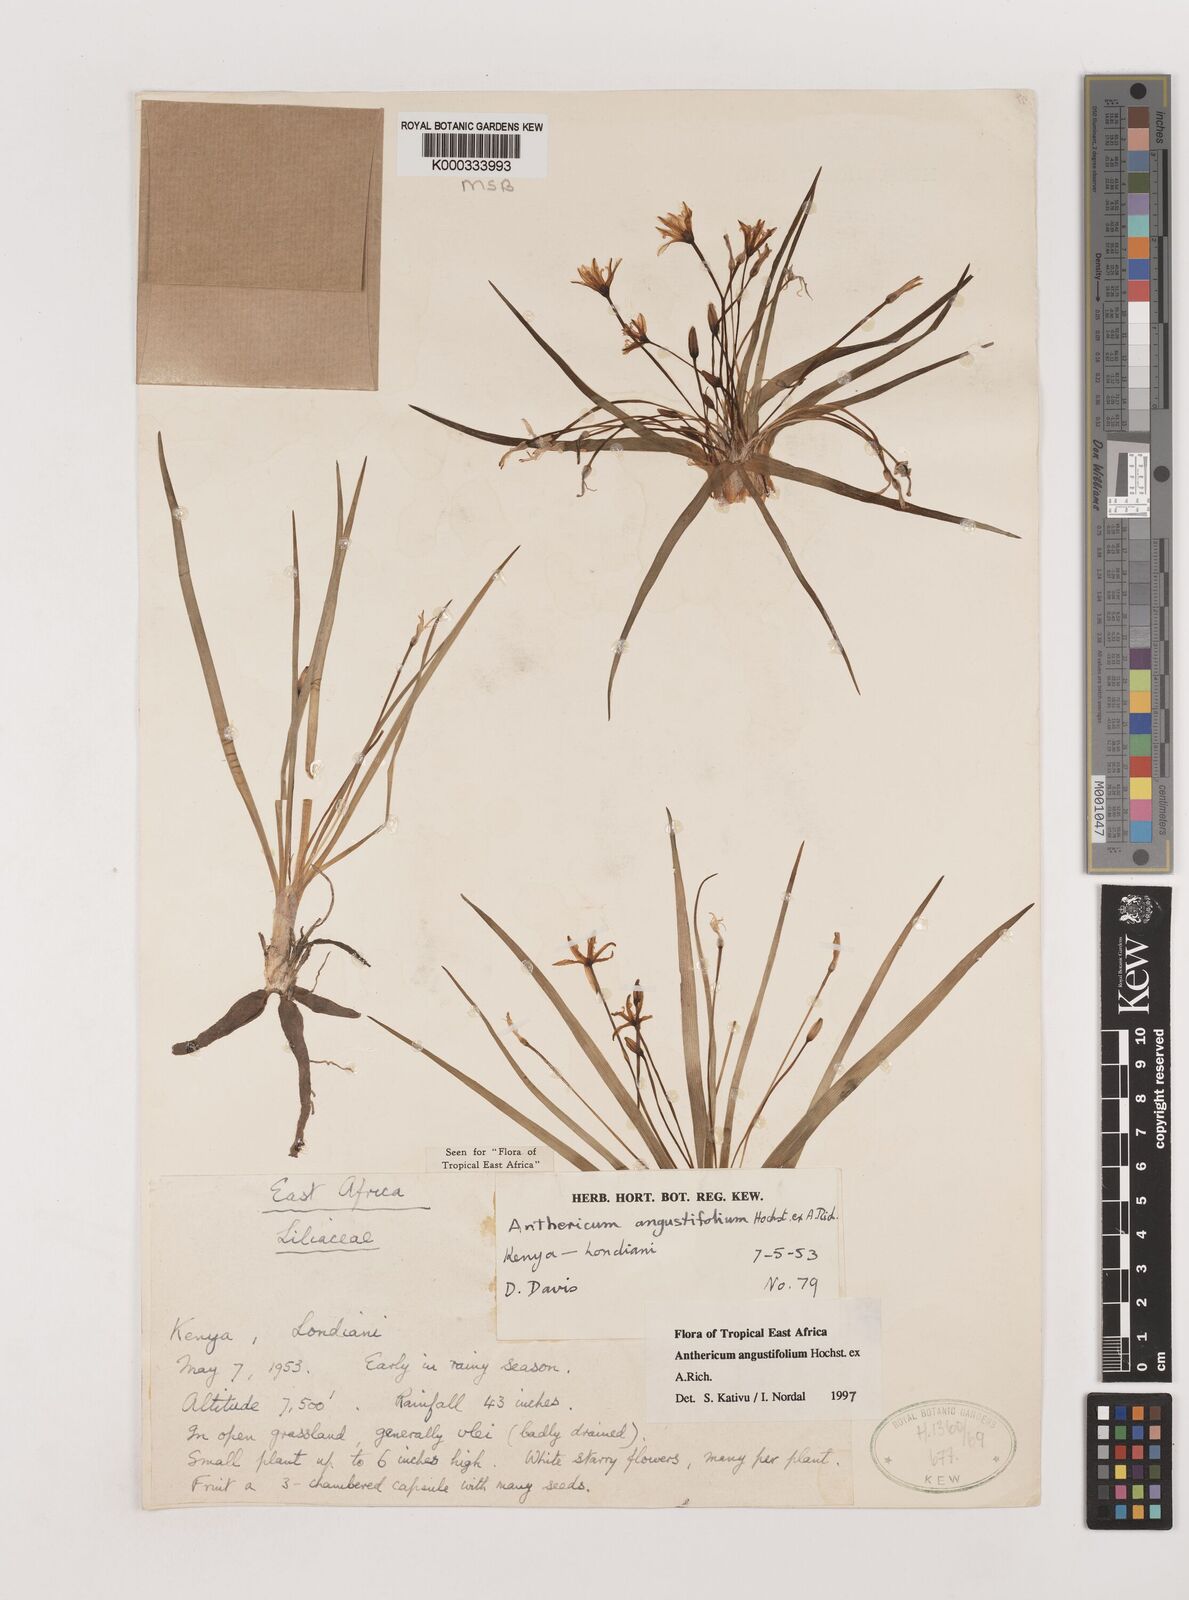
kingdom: Plantae
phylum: Tracheophyta
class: Liliopsida
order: Asparagales
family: Asparagaceae
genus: Anthericum
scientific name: Anthericum angustifolium
